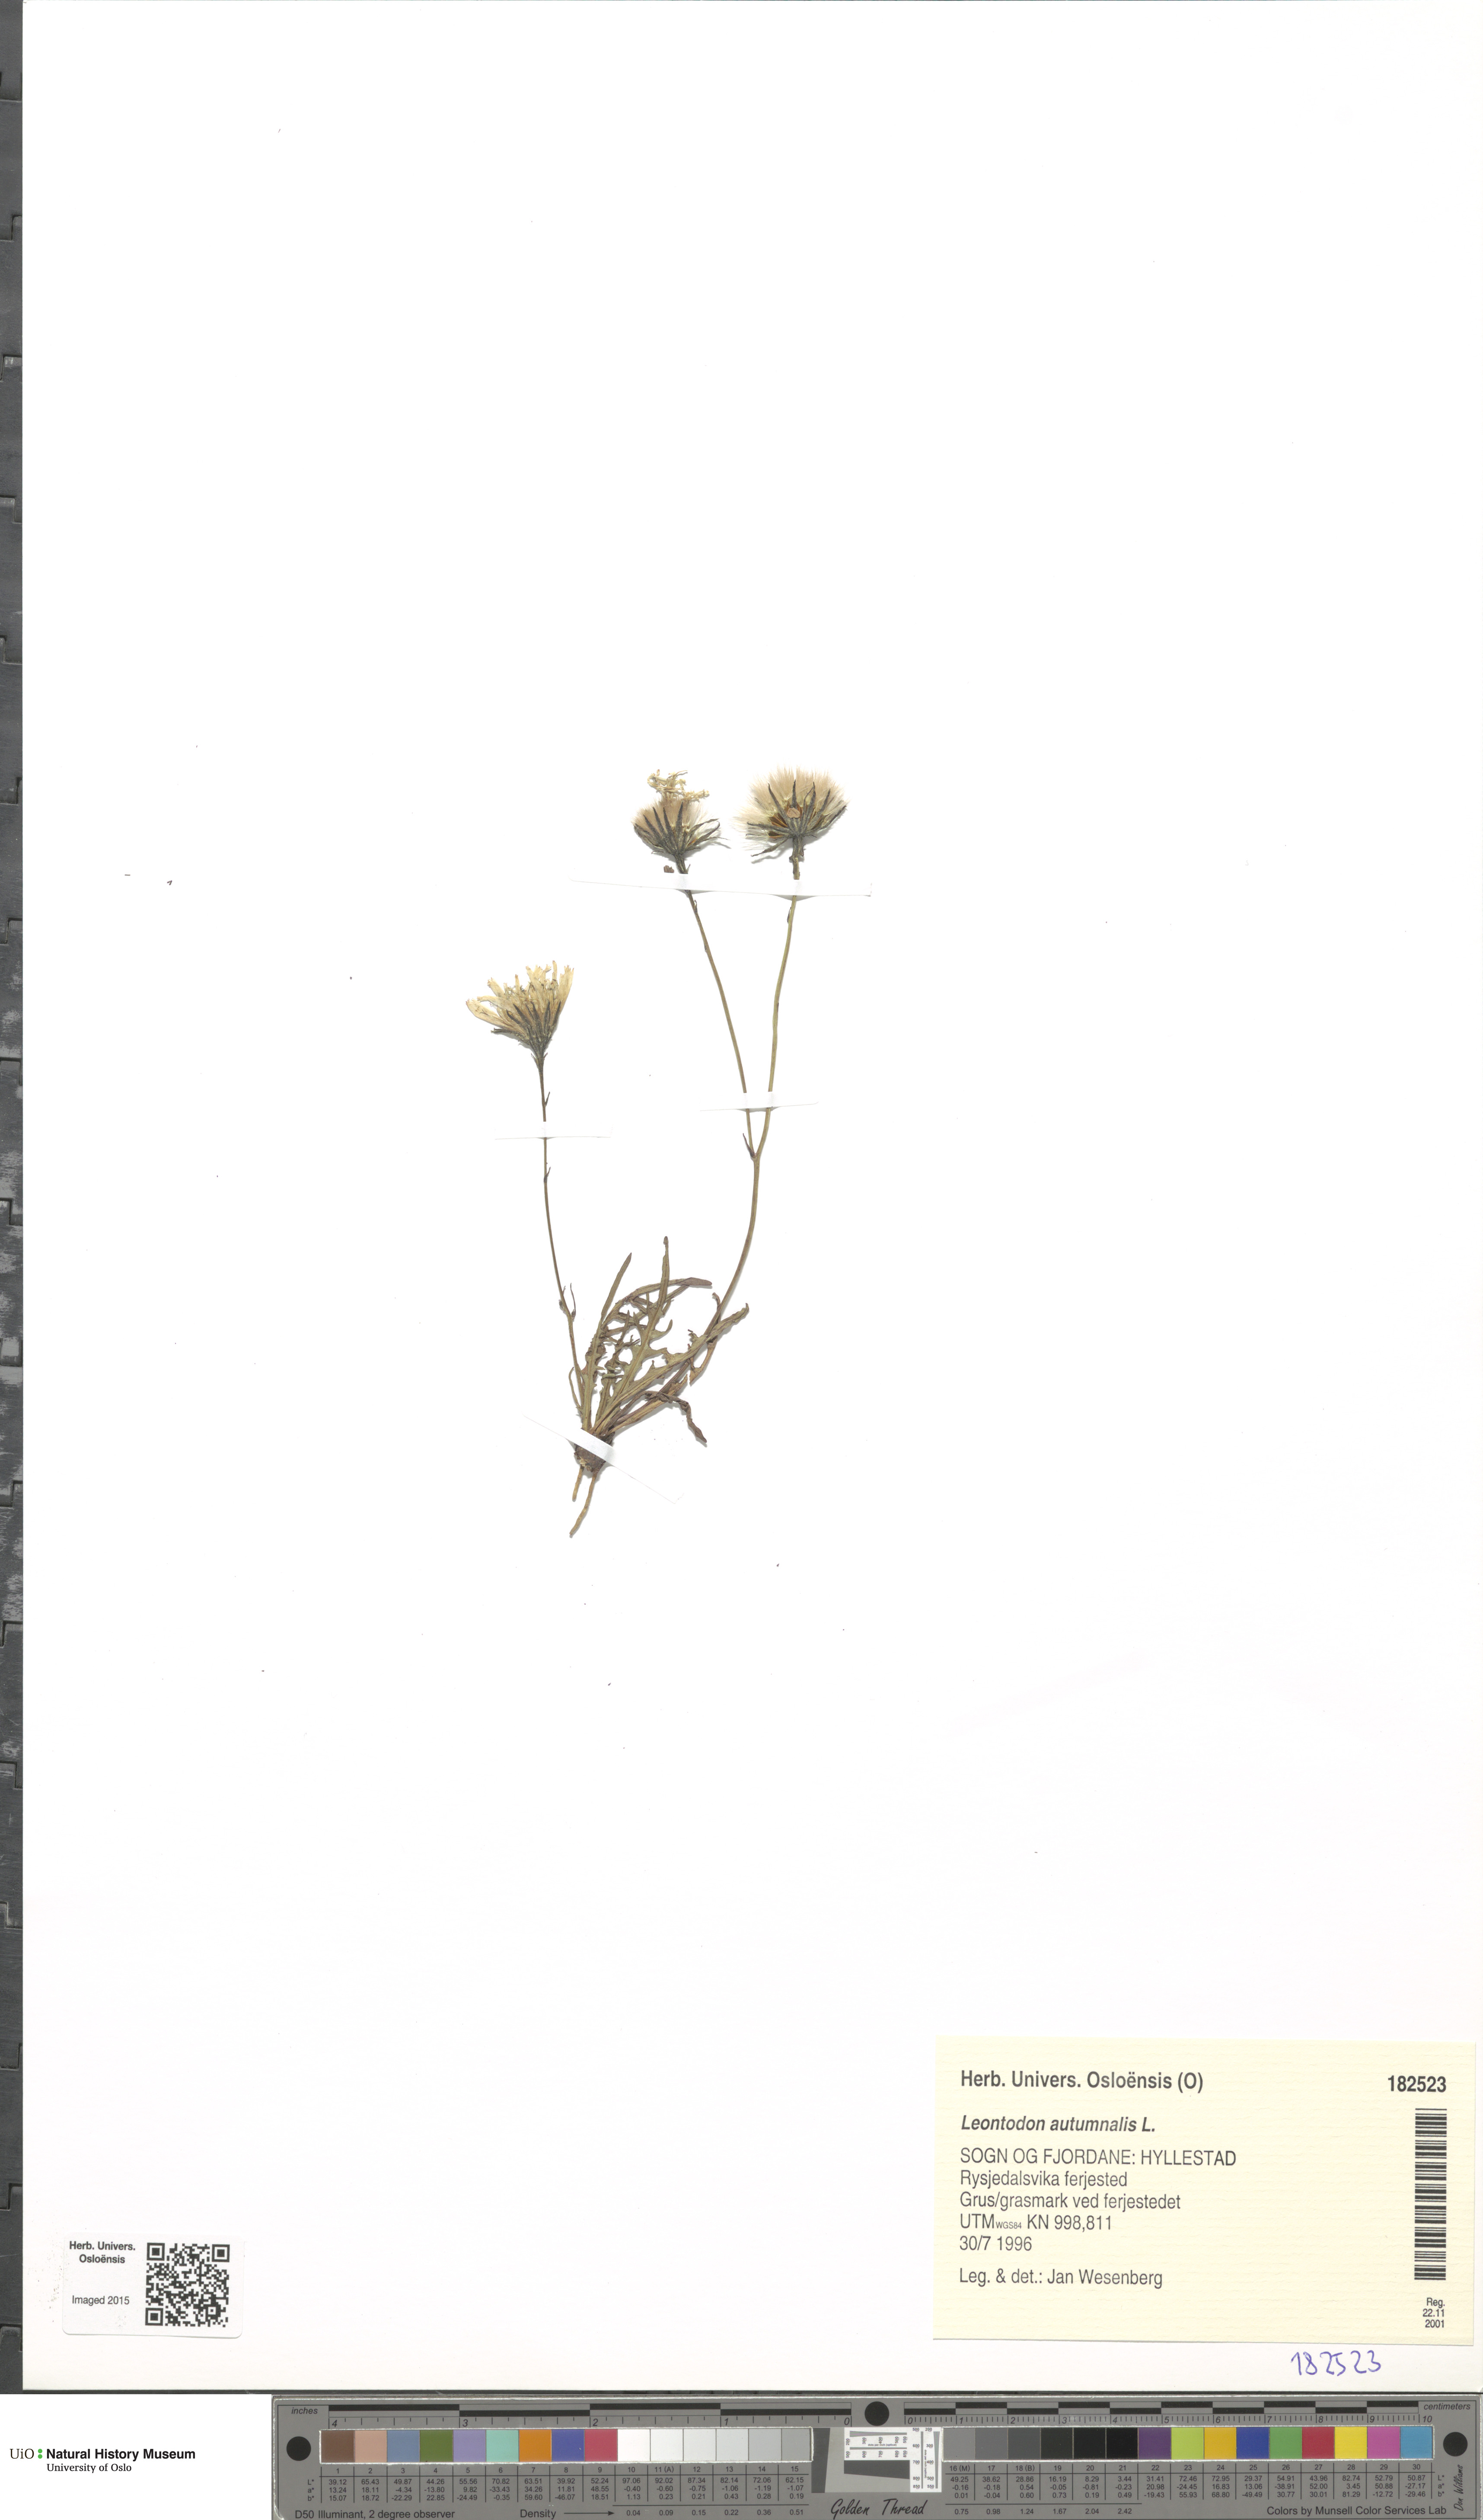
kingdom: Plantae
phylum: Tracheophyta
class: Magnoliopsida
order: Asterales
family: Asteraceae
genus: Scorzoneroides
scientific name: Scorzoneroides autumnalis
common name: Autumn hawkbit
